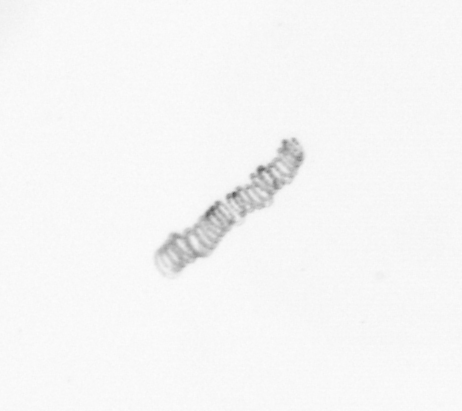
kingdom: Chromista
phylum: Ochrophyta
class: Bacillariophyceae
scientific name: Bacillariophyceae
